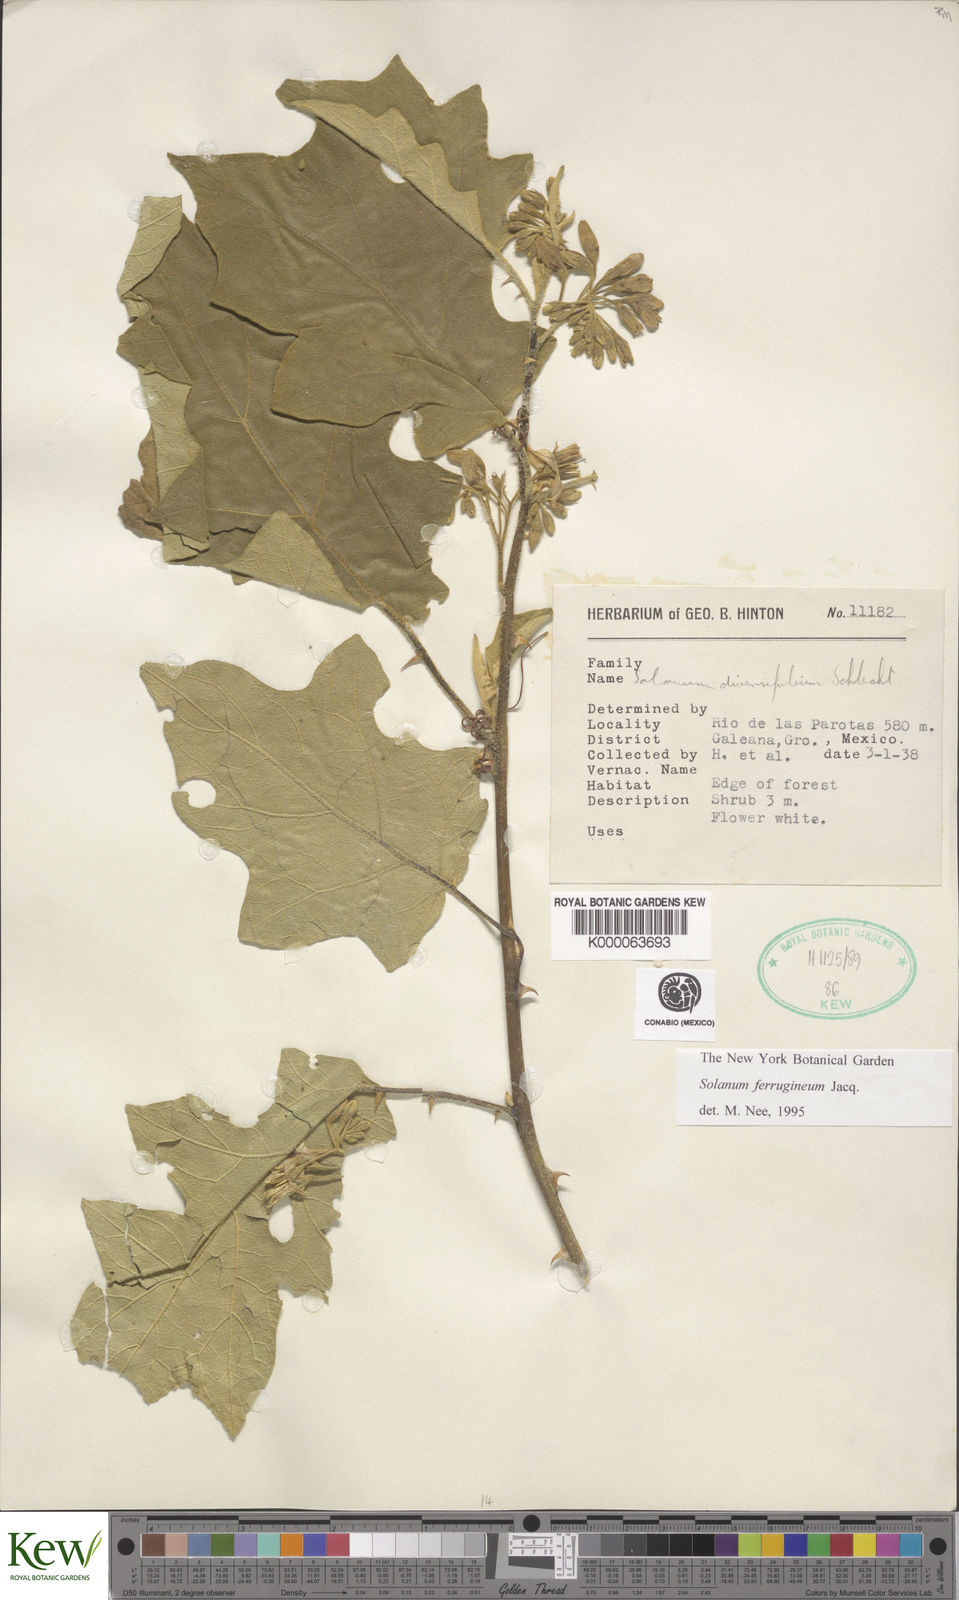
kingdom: Plantae
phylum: Tracheophyta
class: Magnoliopsida
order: Solanales
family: Solanaceae
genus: Solanum
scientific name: Solanum
